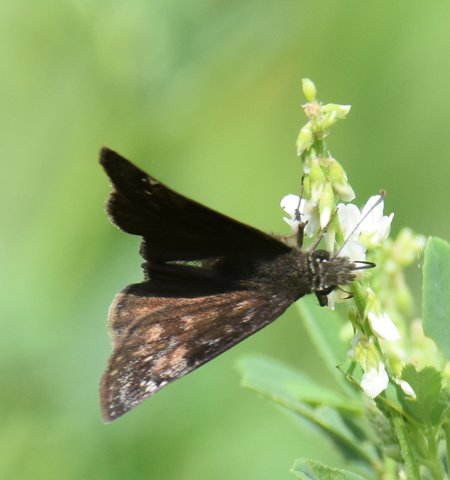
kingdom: Animalia
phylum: Arthropoda
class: Insecta
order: Lepidoptera
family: Hesperiidae
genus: Gesta
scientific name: Gesta
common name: Wild Indigo Duskywing
